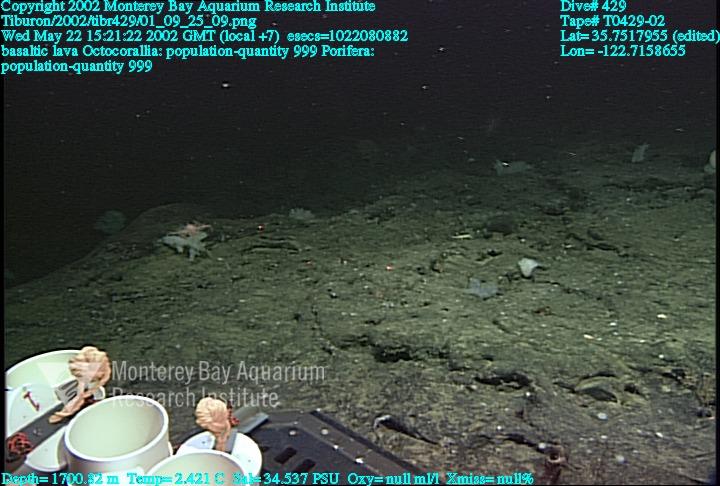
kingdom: Animalia
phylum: Porifera
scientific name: Porifera
